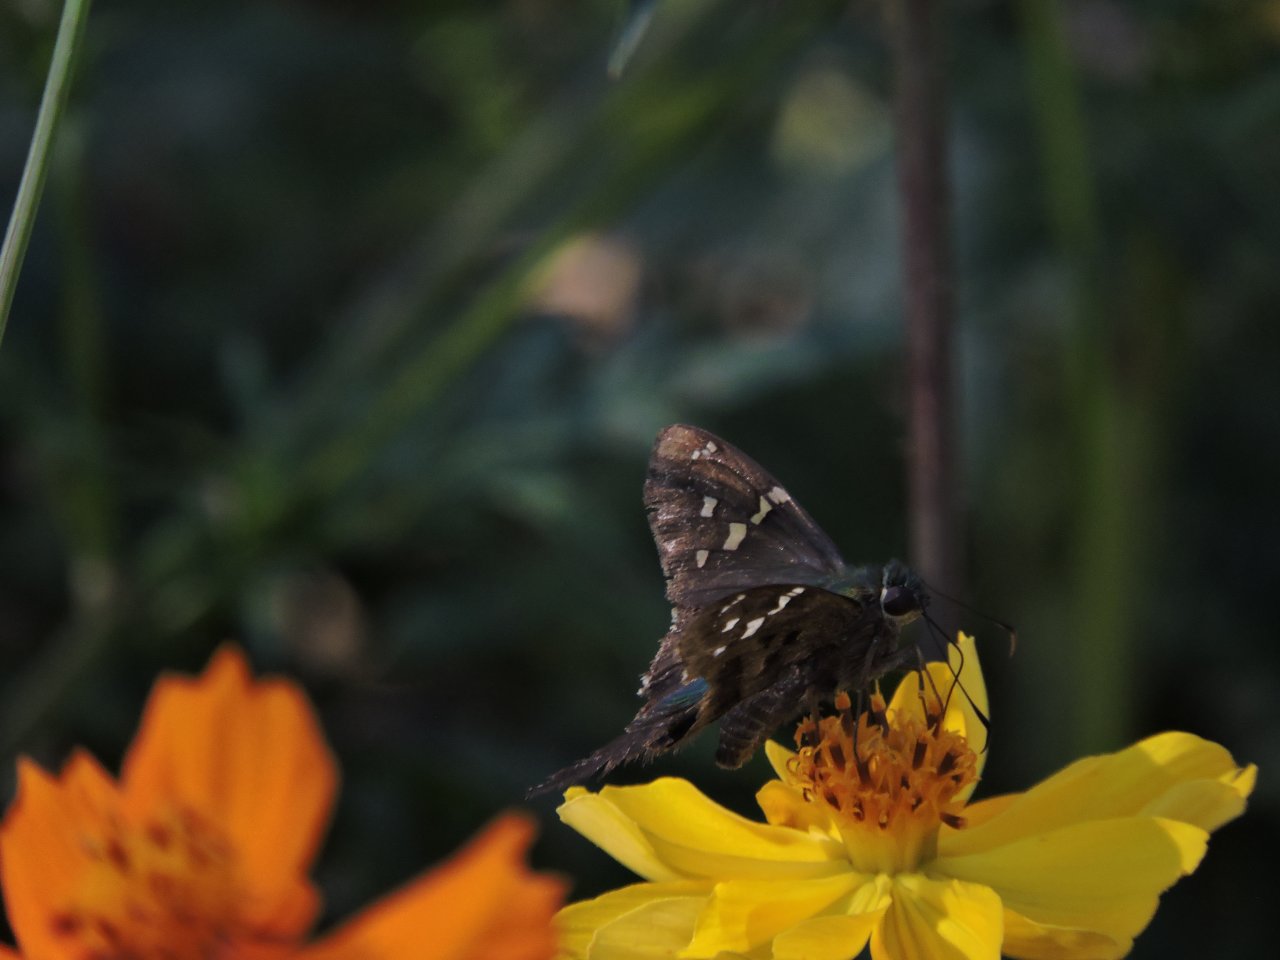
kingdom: Animalia
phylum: Arthropoda
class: Insecta
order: Lepidoptera
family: Hesperiidae
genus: Urbanus
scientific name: Urbanus proteus
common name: Long-tailed Skipper
